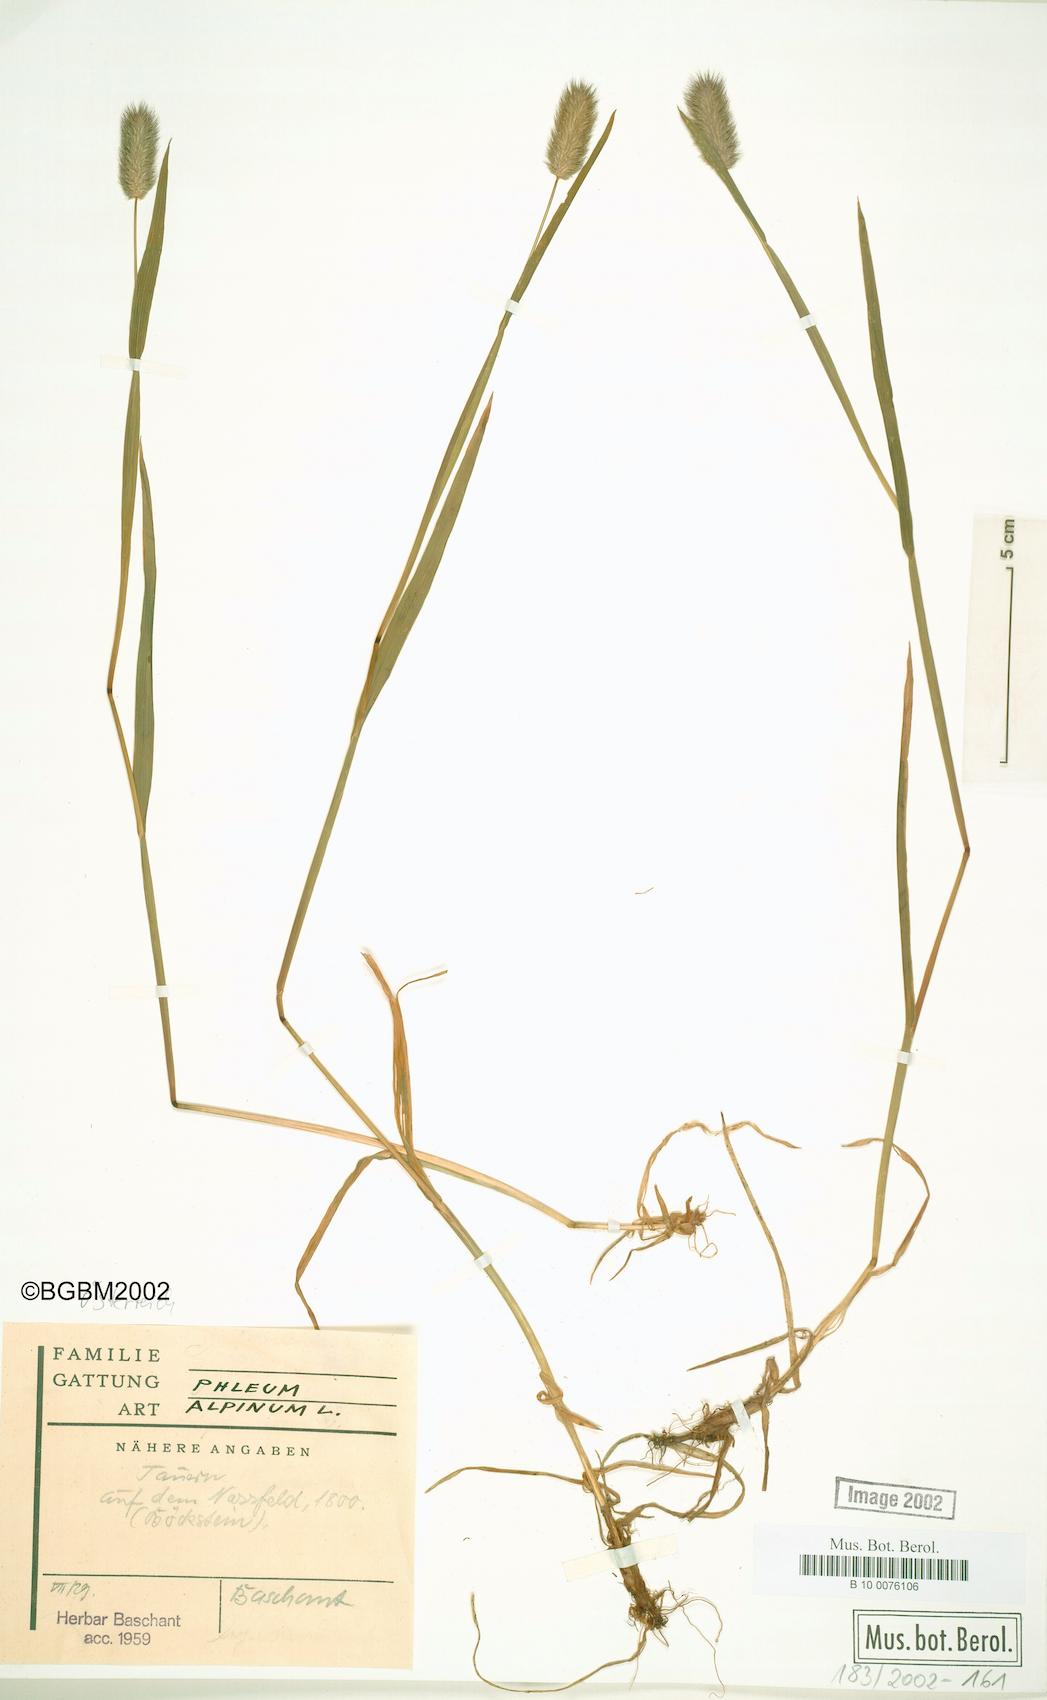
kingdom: Plantae
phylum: Tracheophyta
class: Liliopsida
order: Poales
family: Poaceae
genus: Phleum
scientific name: Phleum alpinum
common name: Alpine cat's-tail
